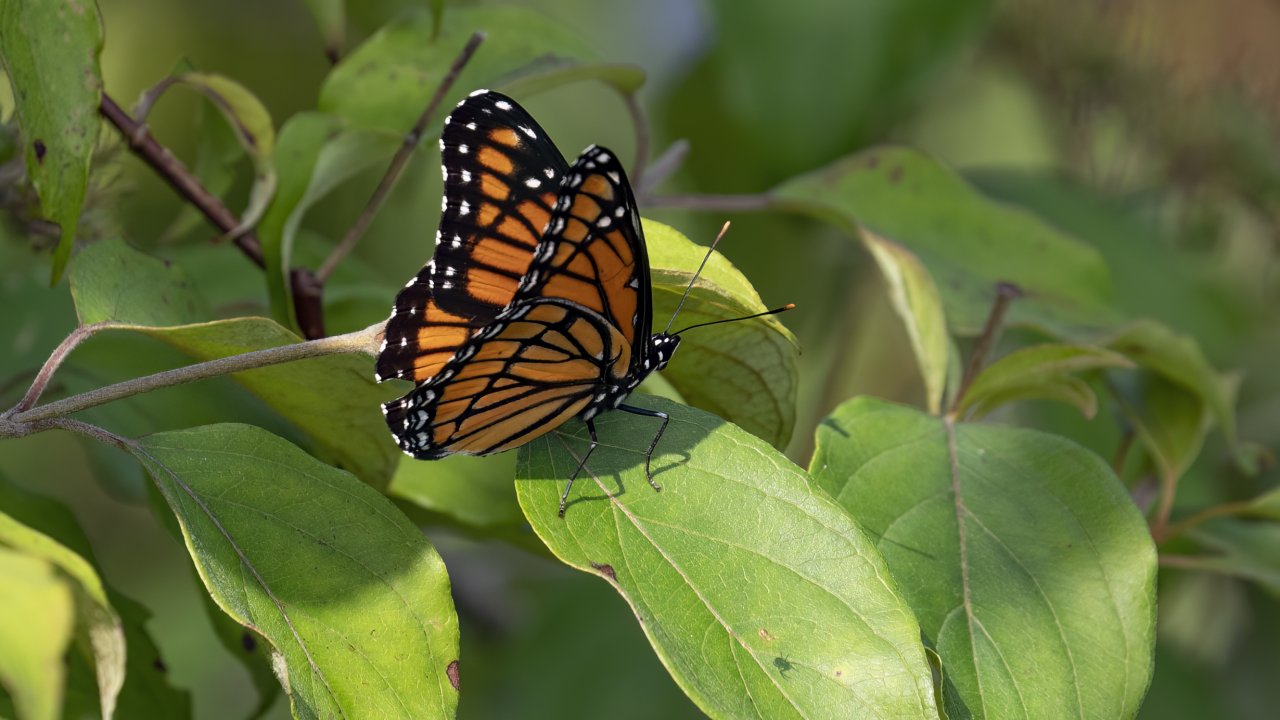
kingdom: Animalia
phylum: Arthropoda
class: Insecta
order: Lepidoptera
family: Nymphalidae
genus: Limenitis
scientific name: Limenitis archippus
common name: Viceroy
